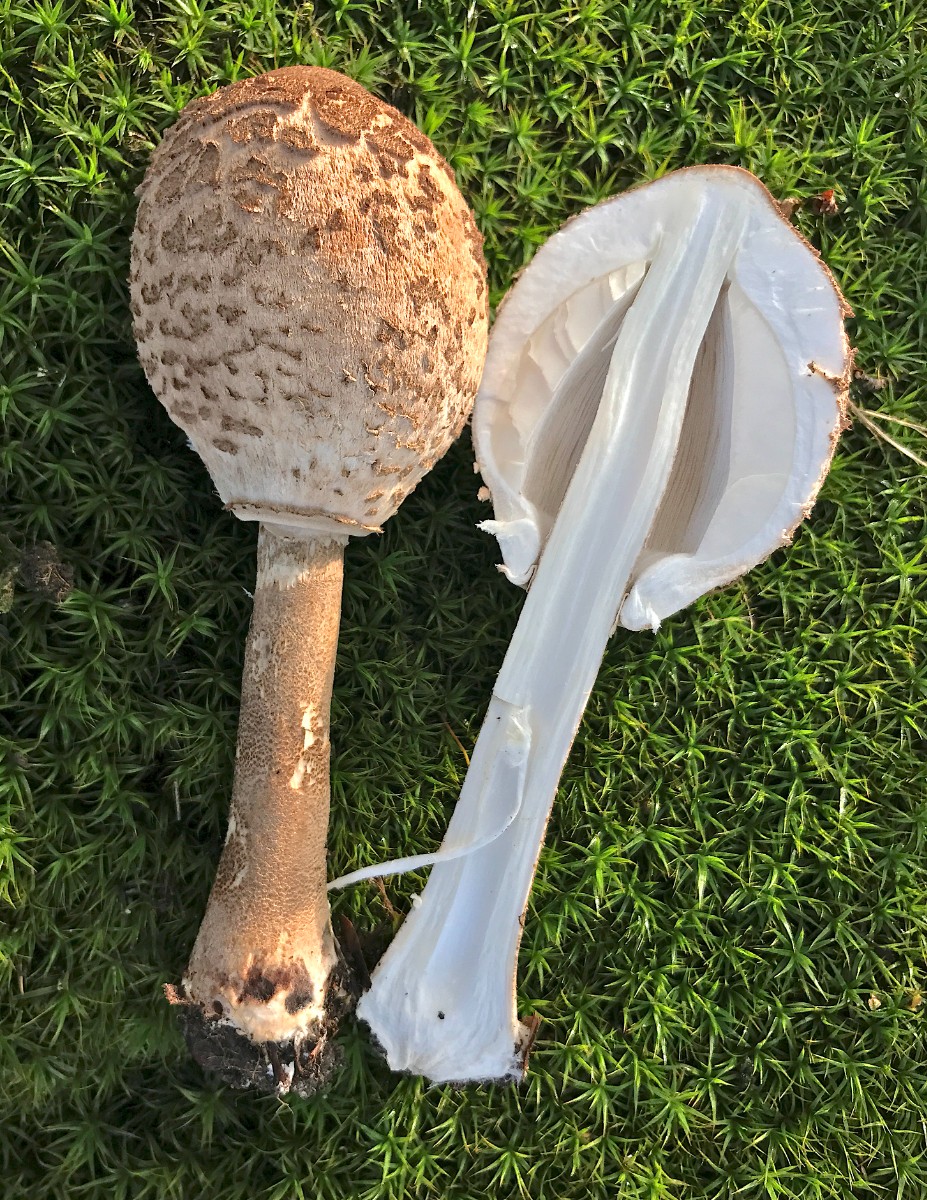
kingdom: Fungi
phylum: Basidiomycota
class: Agaricomycetes
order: Agaricales
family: Agaricaceae
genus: Macrolepiota
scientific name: Macrolepiota procera
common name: stor kæmpeparasolhat
